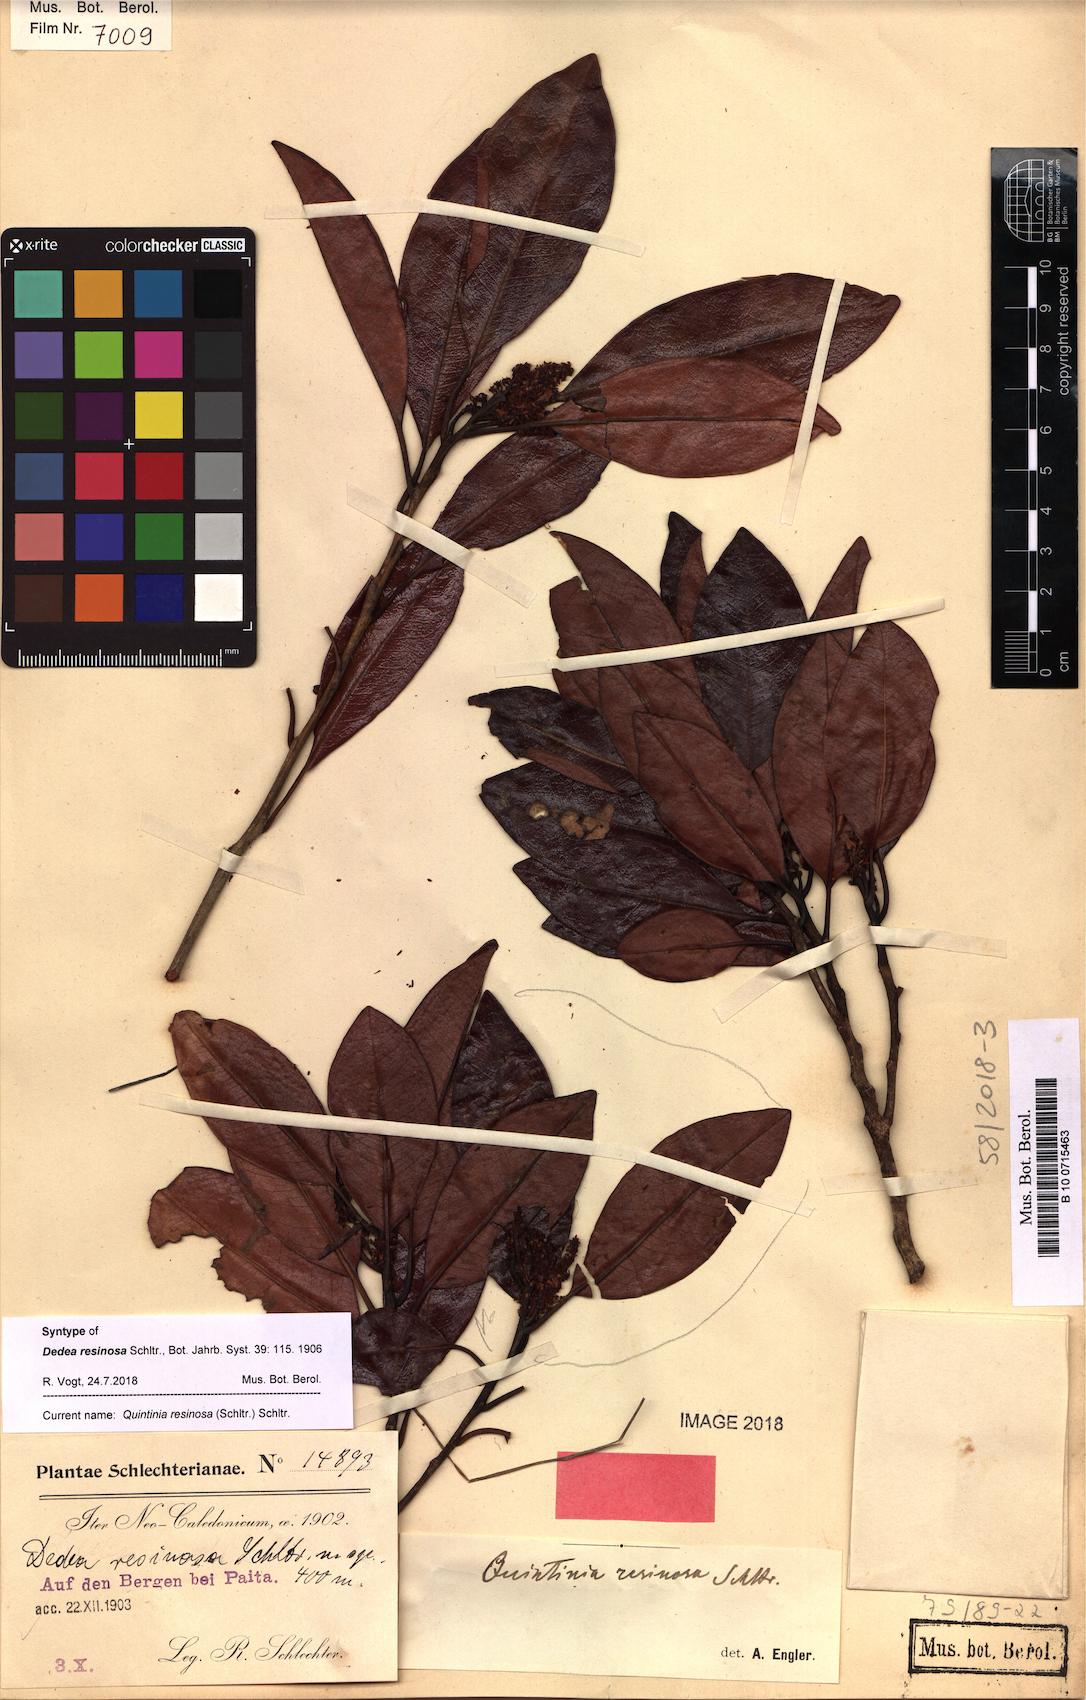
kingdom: Plantae
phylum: Tracheophyta
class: Magnoliopsida
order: Paracryphiales
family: Paracryphiaceae
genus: Quintinia
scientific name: Quintinia minor
